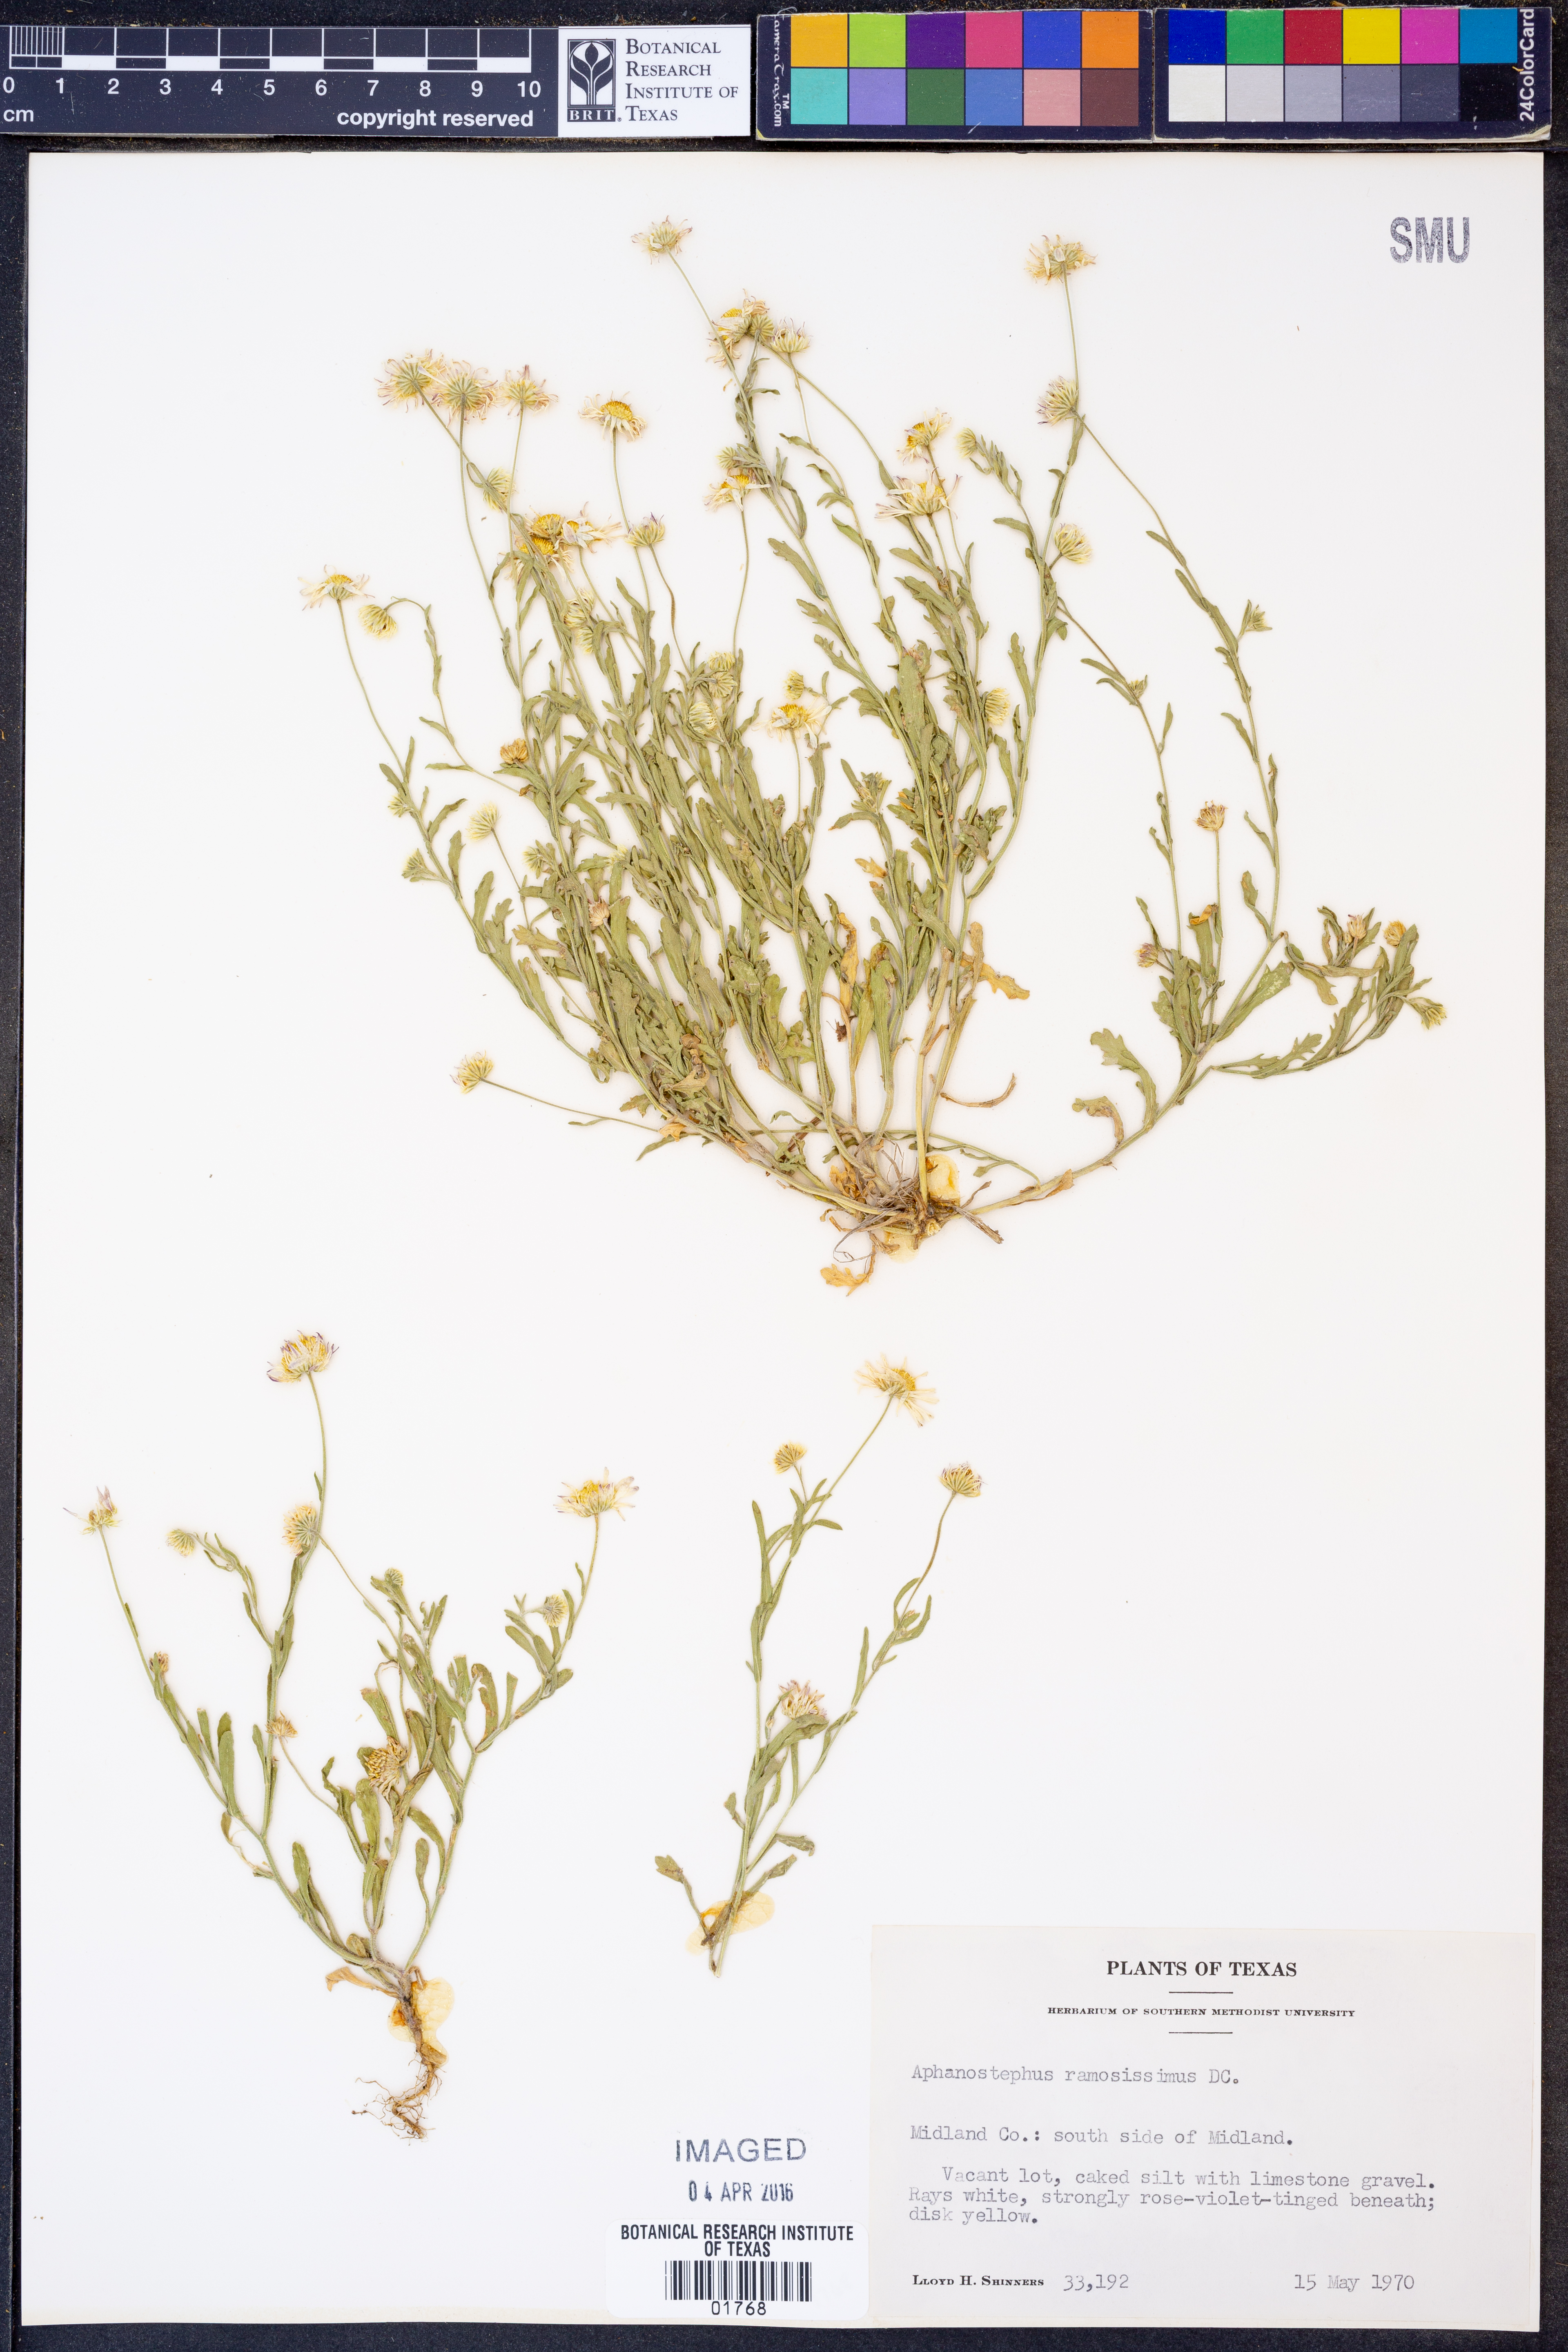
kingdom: Plantae
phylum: Tracheophyta
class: Magnoliopsida
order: Asterales
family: Asteraceae
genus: Aphanostephus
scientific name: Aphanostephus ramosissimus
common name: Plains lazy daisy
